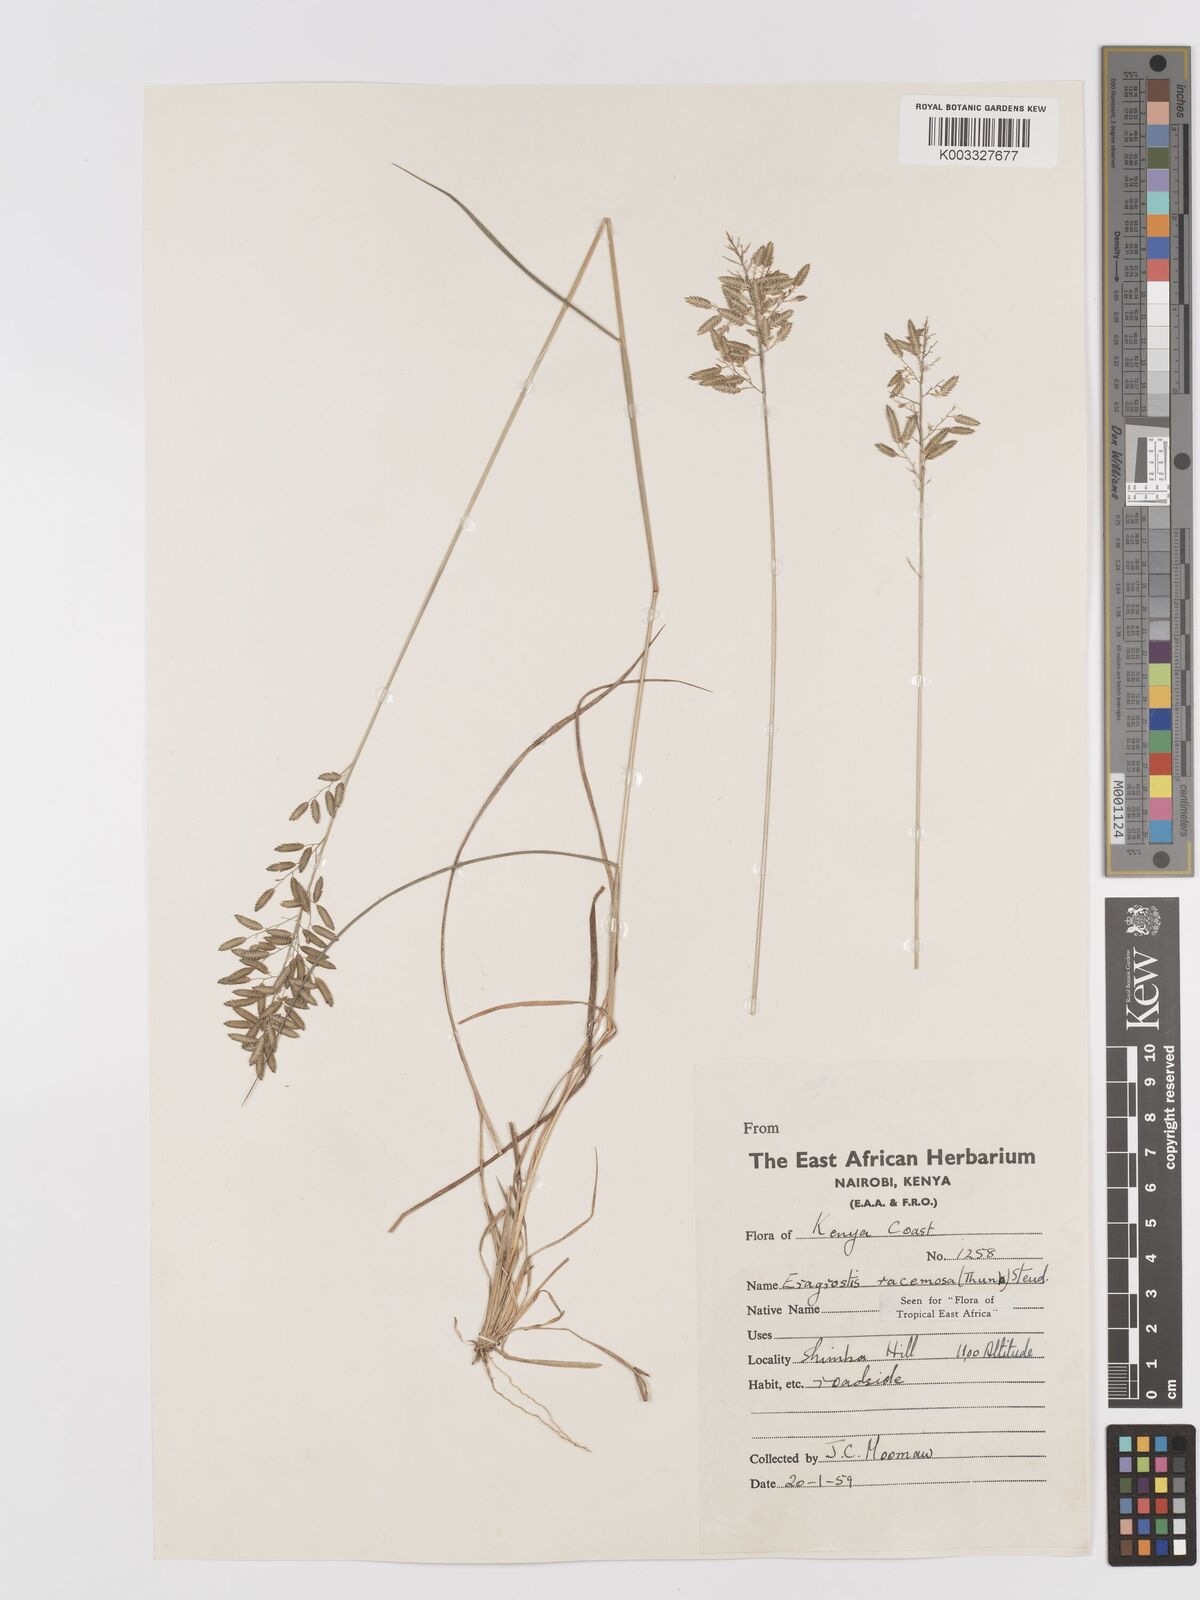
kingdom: Plantae
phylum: Tracheophyta
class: Liliopsida
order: Poales
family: Poaceae
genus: Eragrostis
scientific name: Eragrostis racemosa
